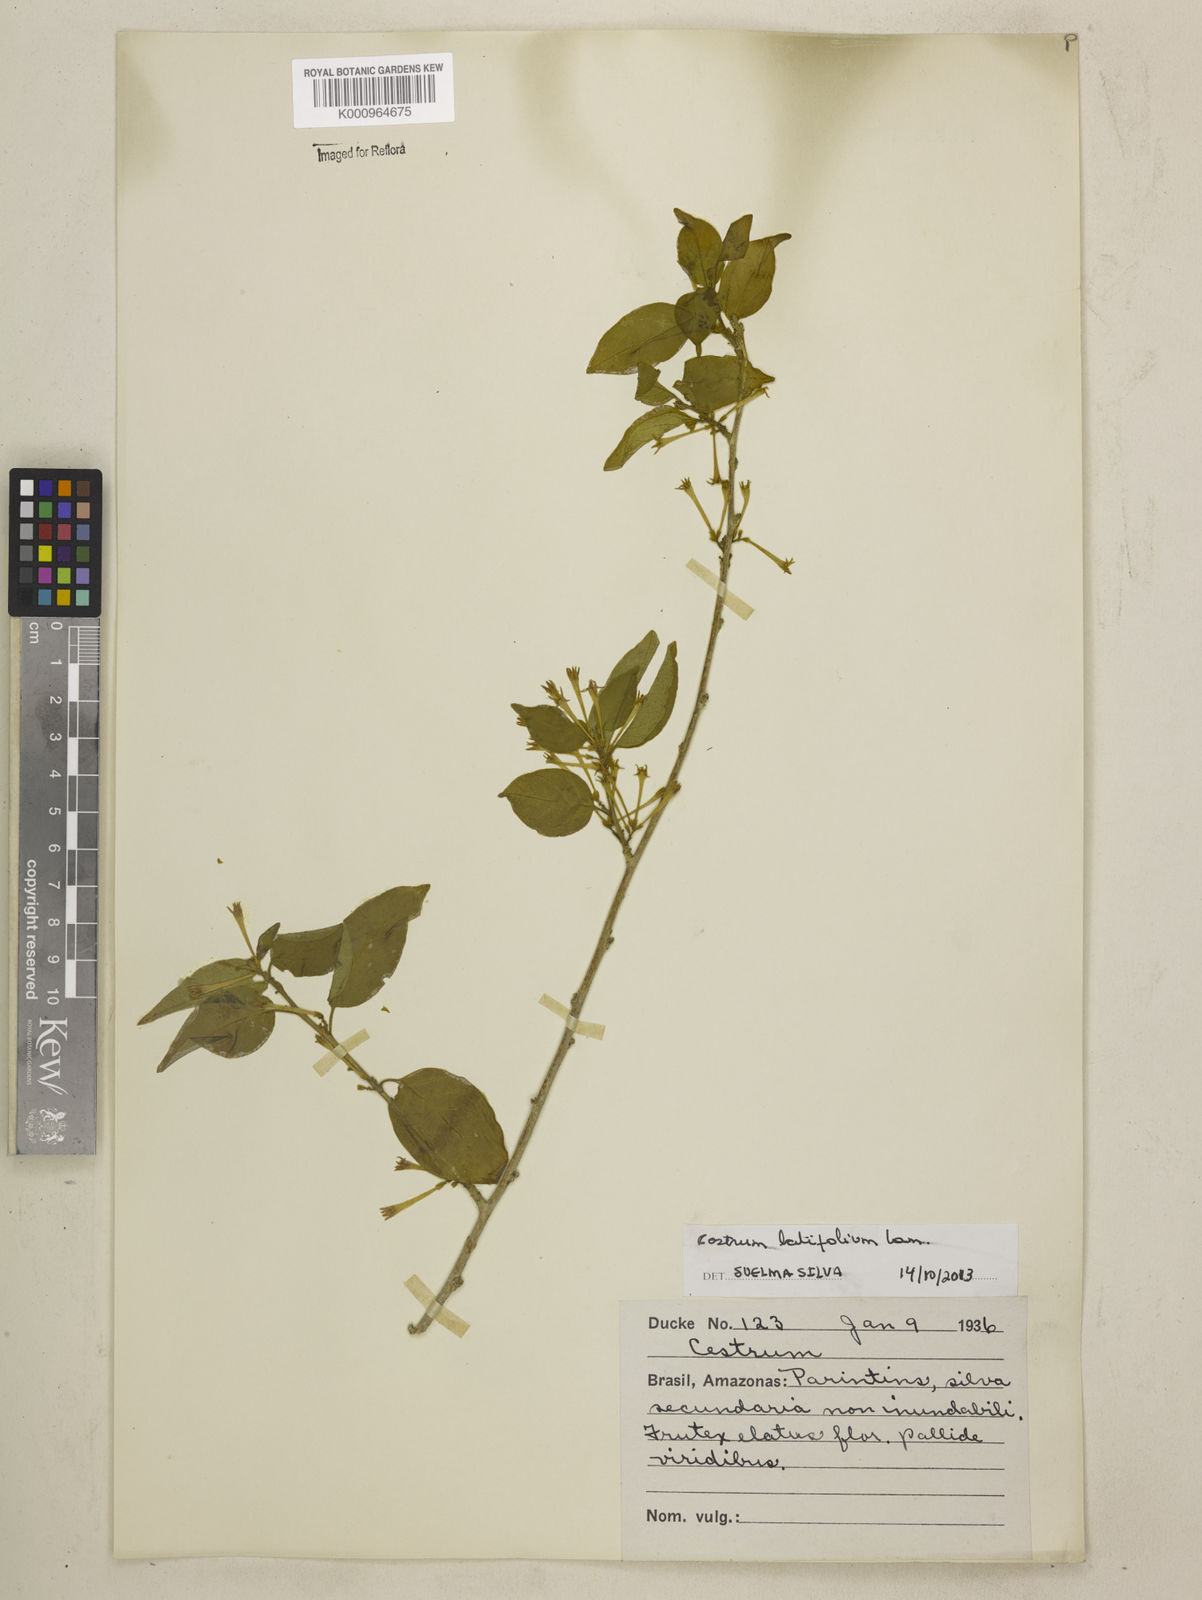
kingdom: Plantae
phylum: Tracheophyta
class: Magnoliopsida
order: Solanales
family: Solanaceae
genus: Cestrum
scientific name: Cestrum latifolium
